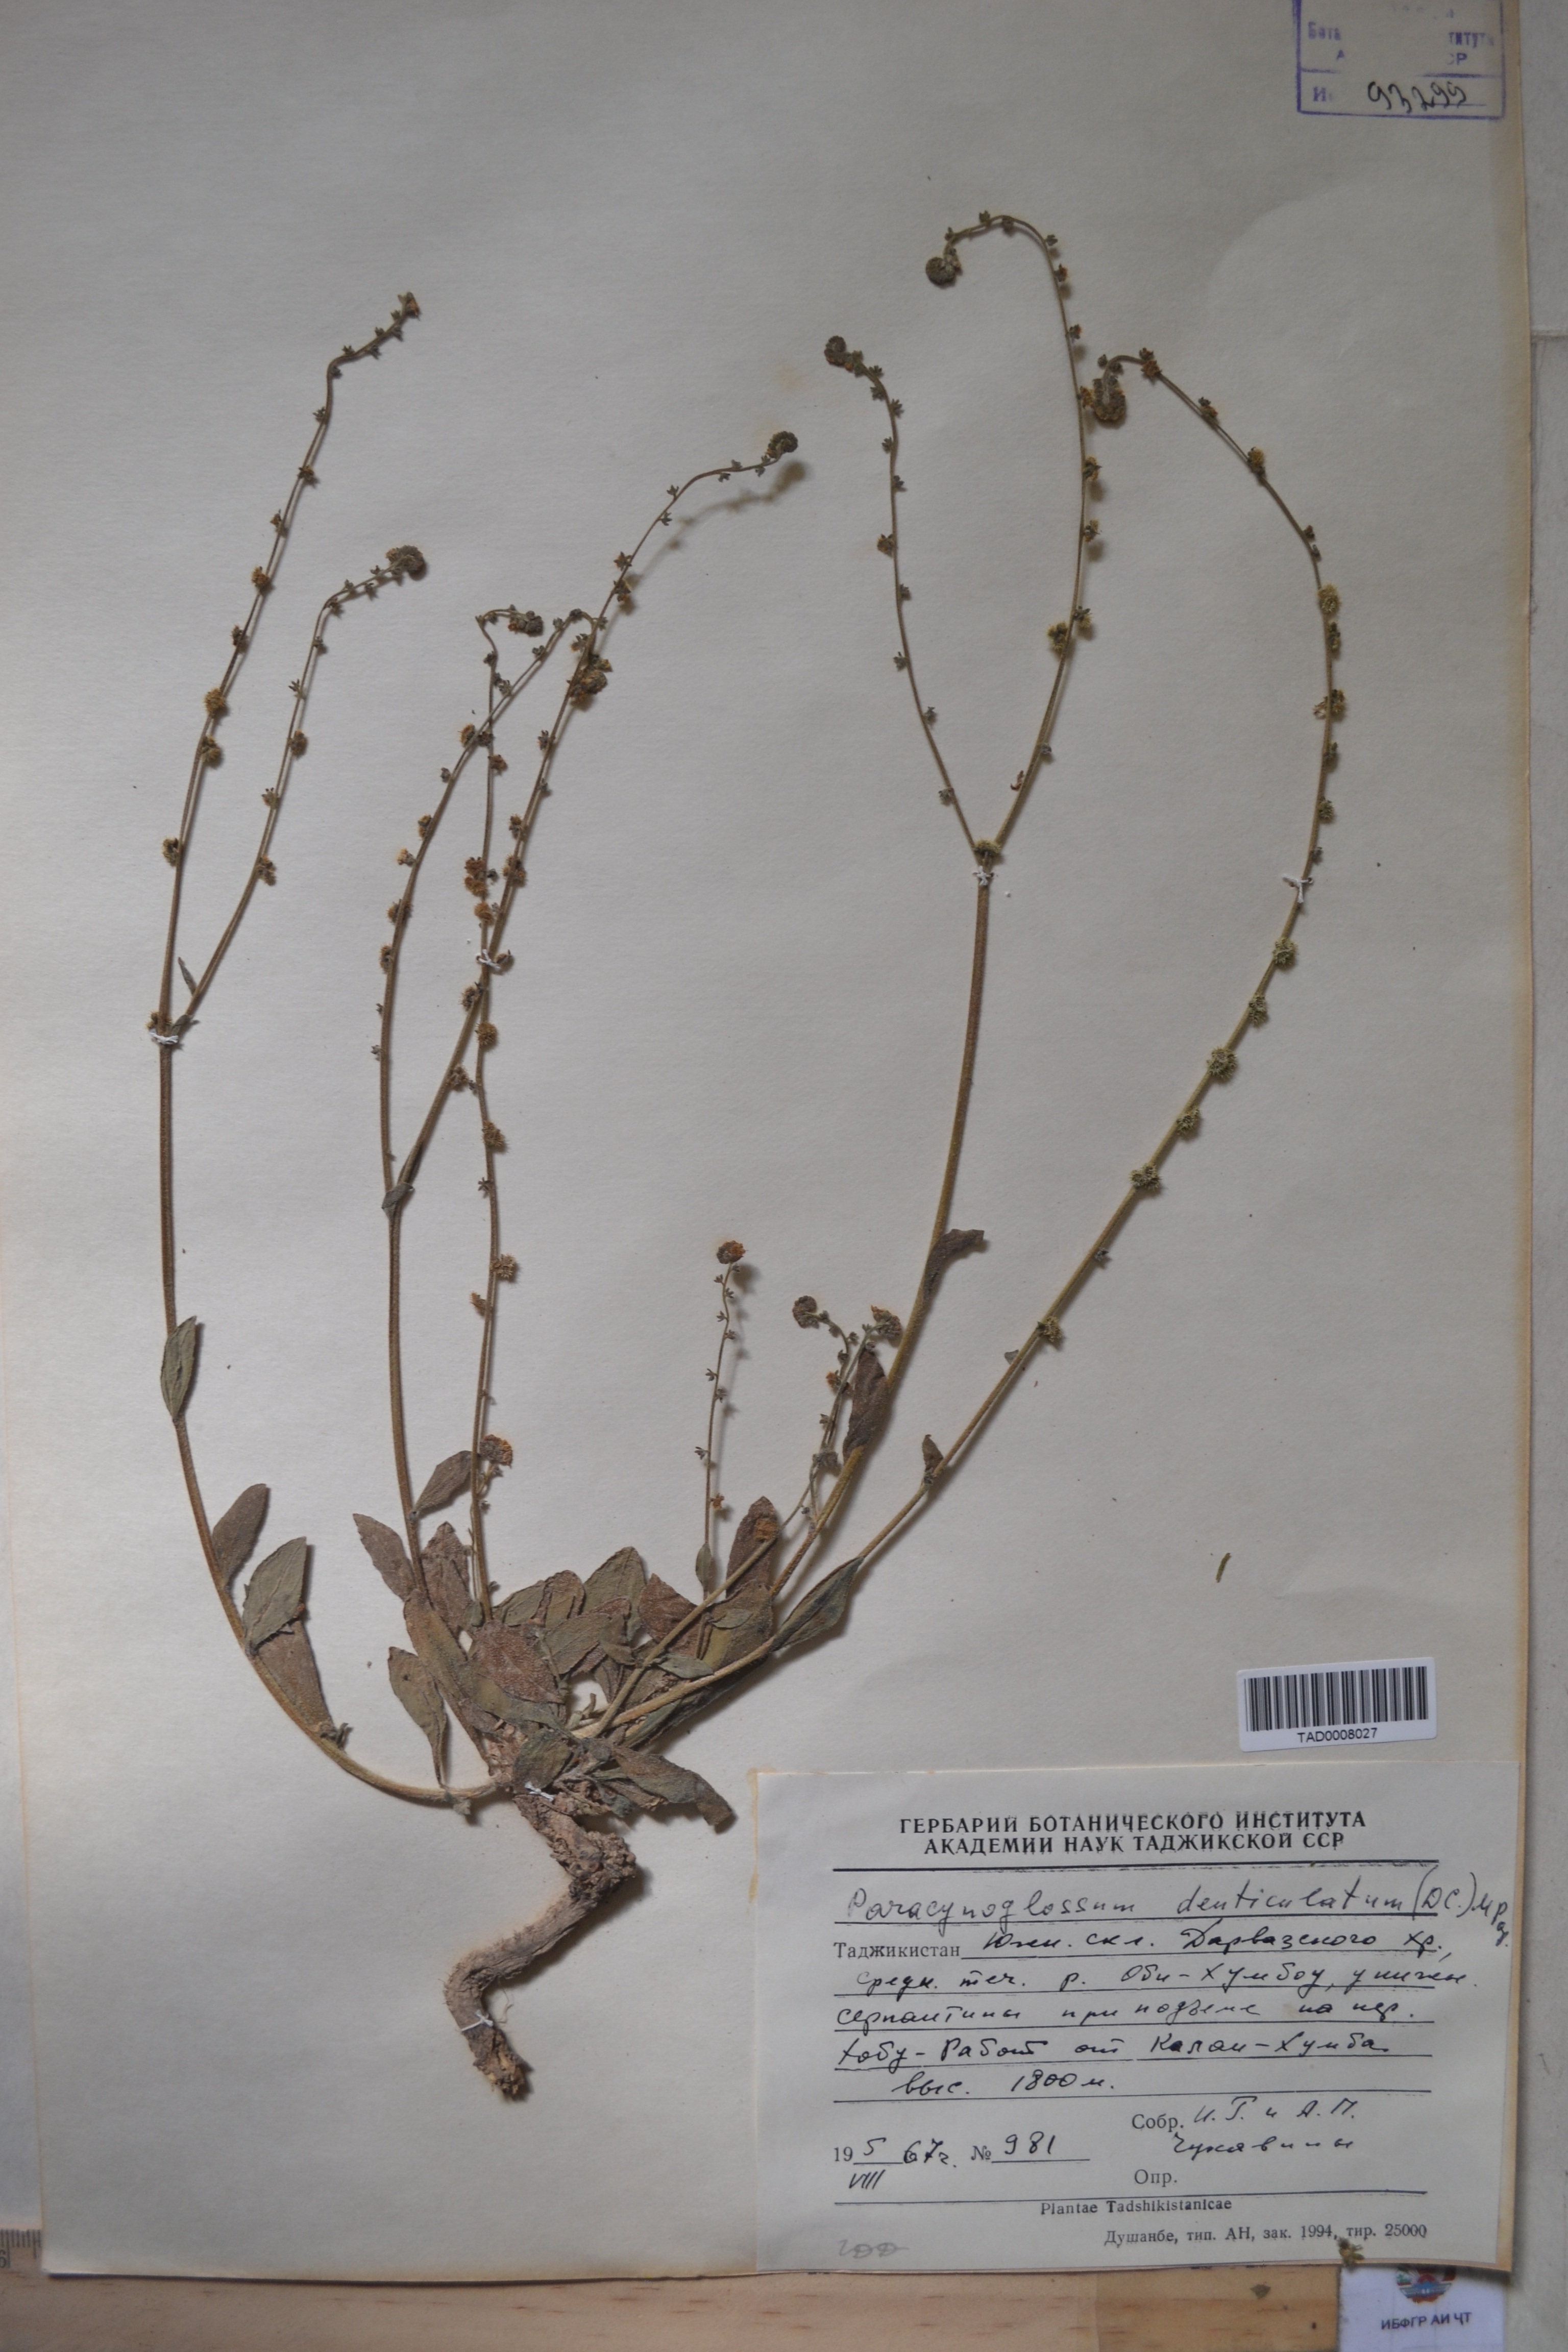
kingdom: Plantae
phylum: Tracheophyta
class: Magnoliopsida
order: Boraginales
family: Boraginaceae
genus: Paracynoglossum
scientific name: Paracynoglossum glochidiatum
